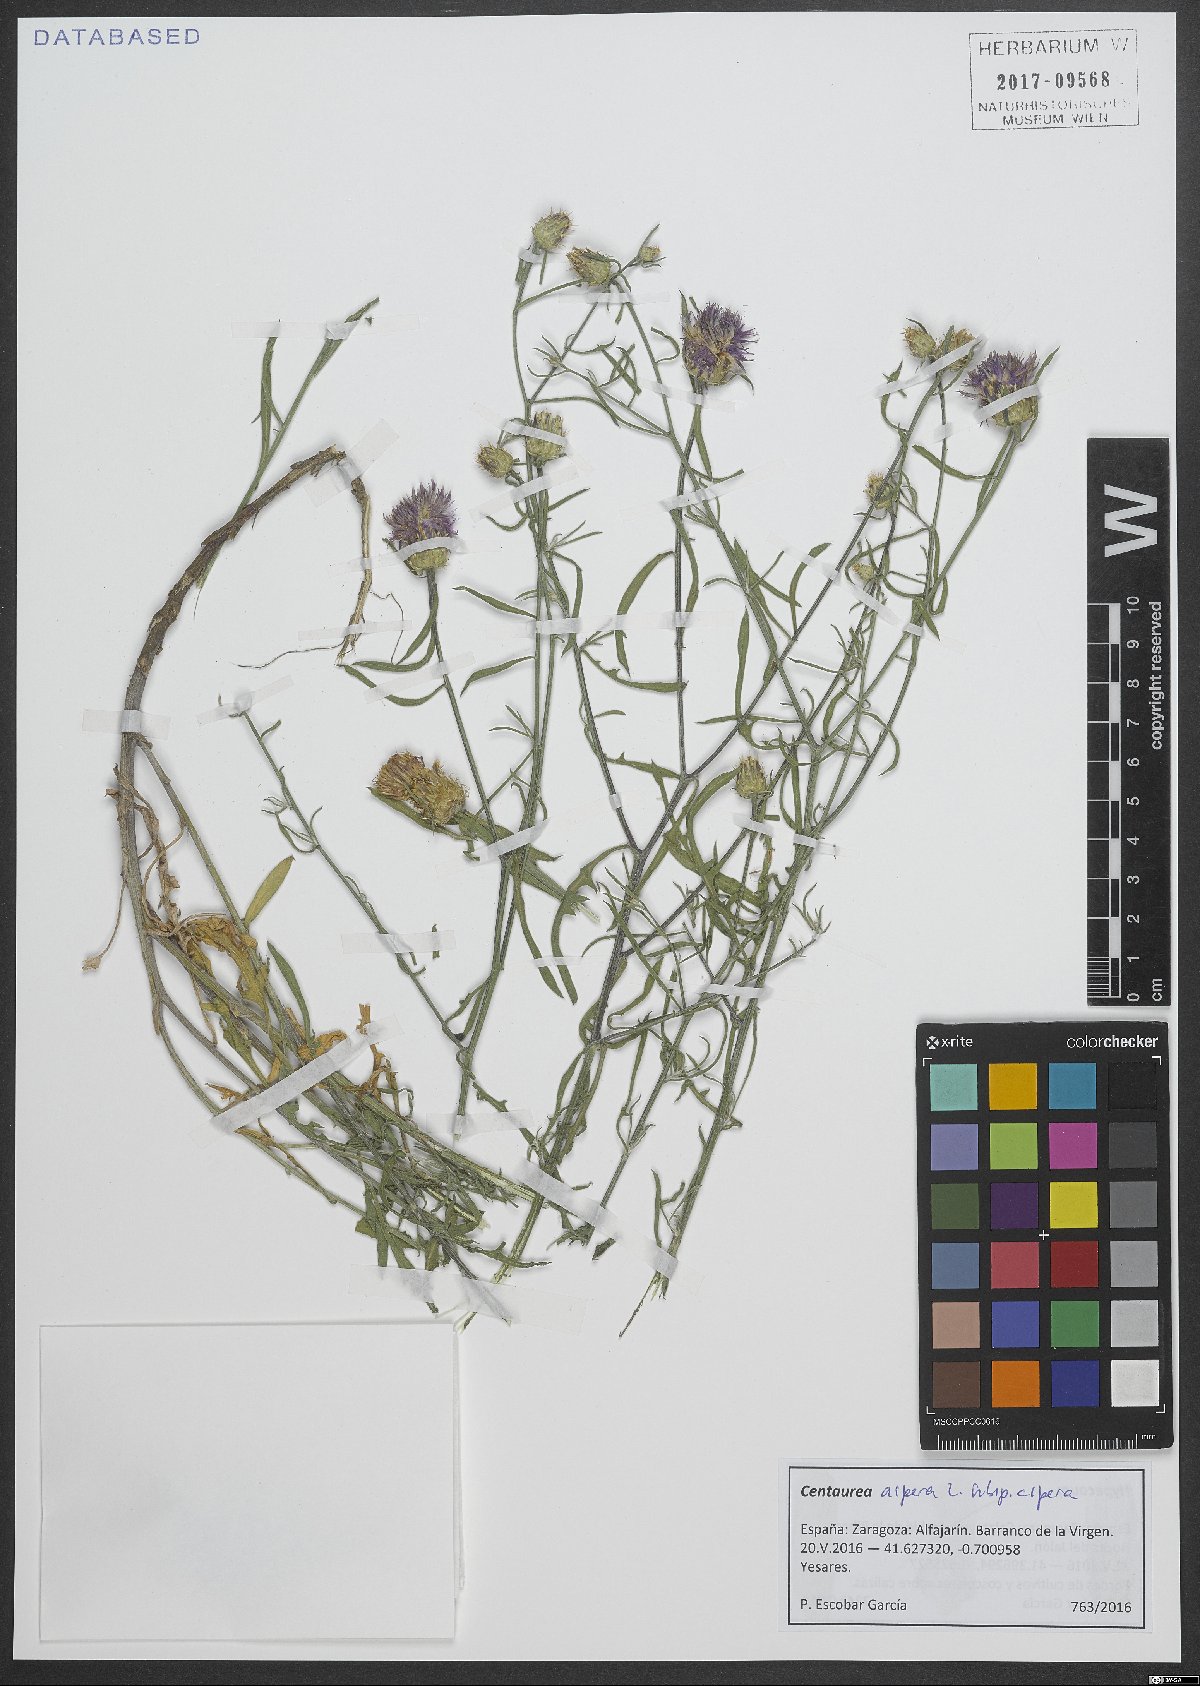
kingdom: Plantae
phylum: Tracheophyta
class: Magnoliopsida
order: Asterales
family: Asteraceae
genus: Centaurea
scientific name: Centaurea aspera
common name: Rough star-thistle
